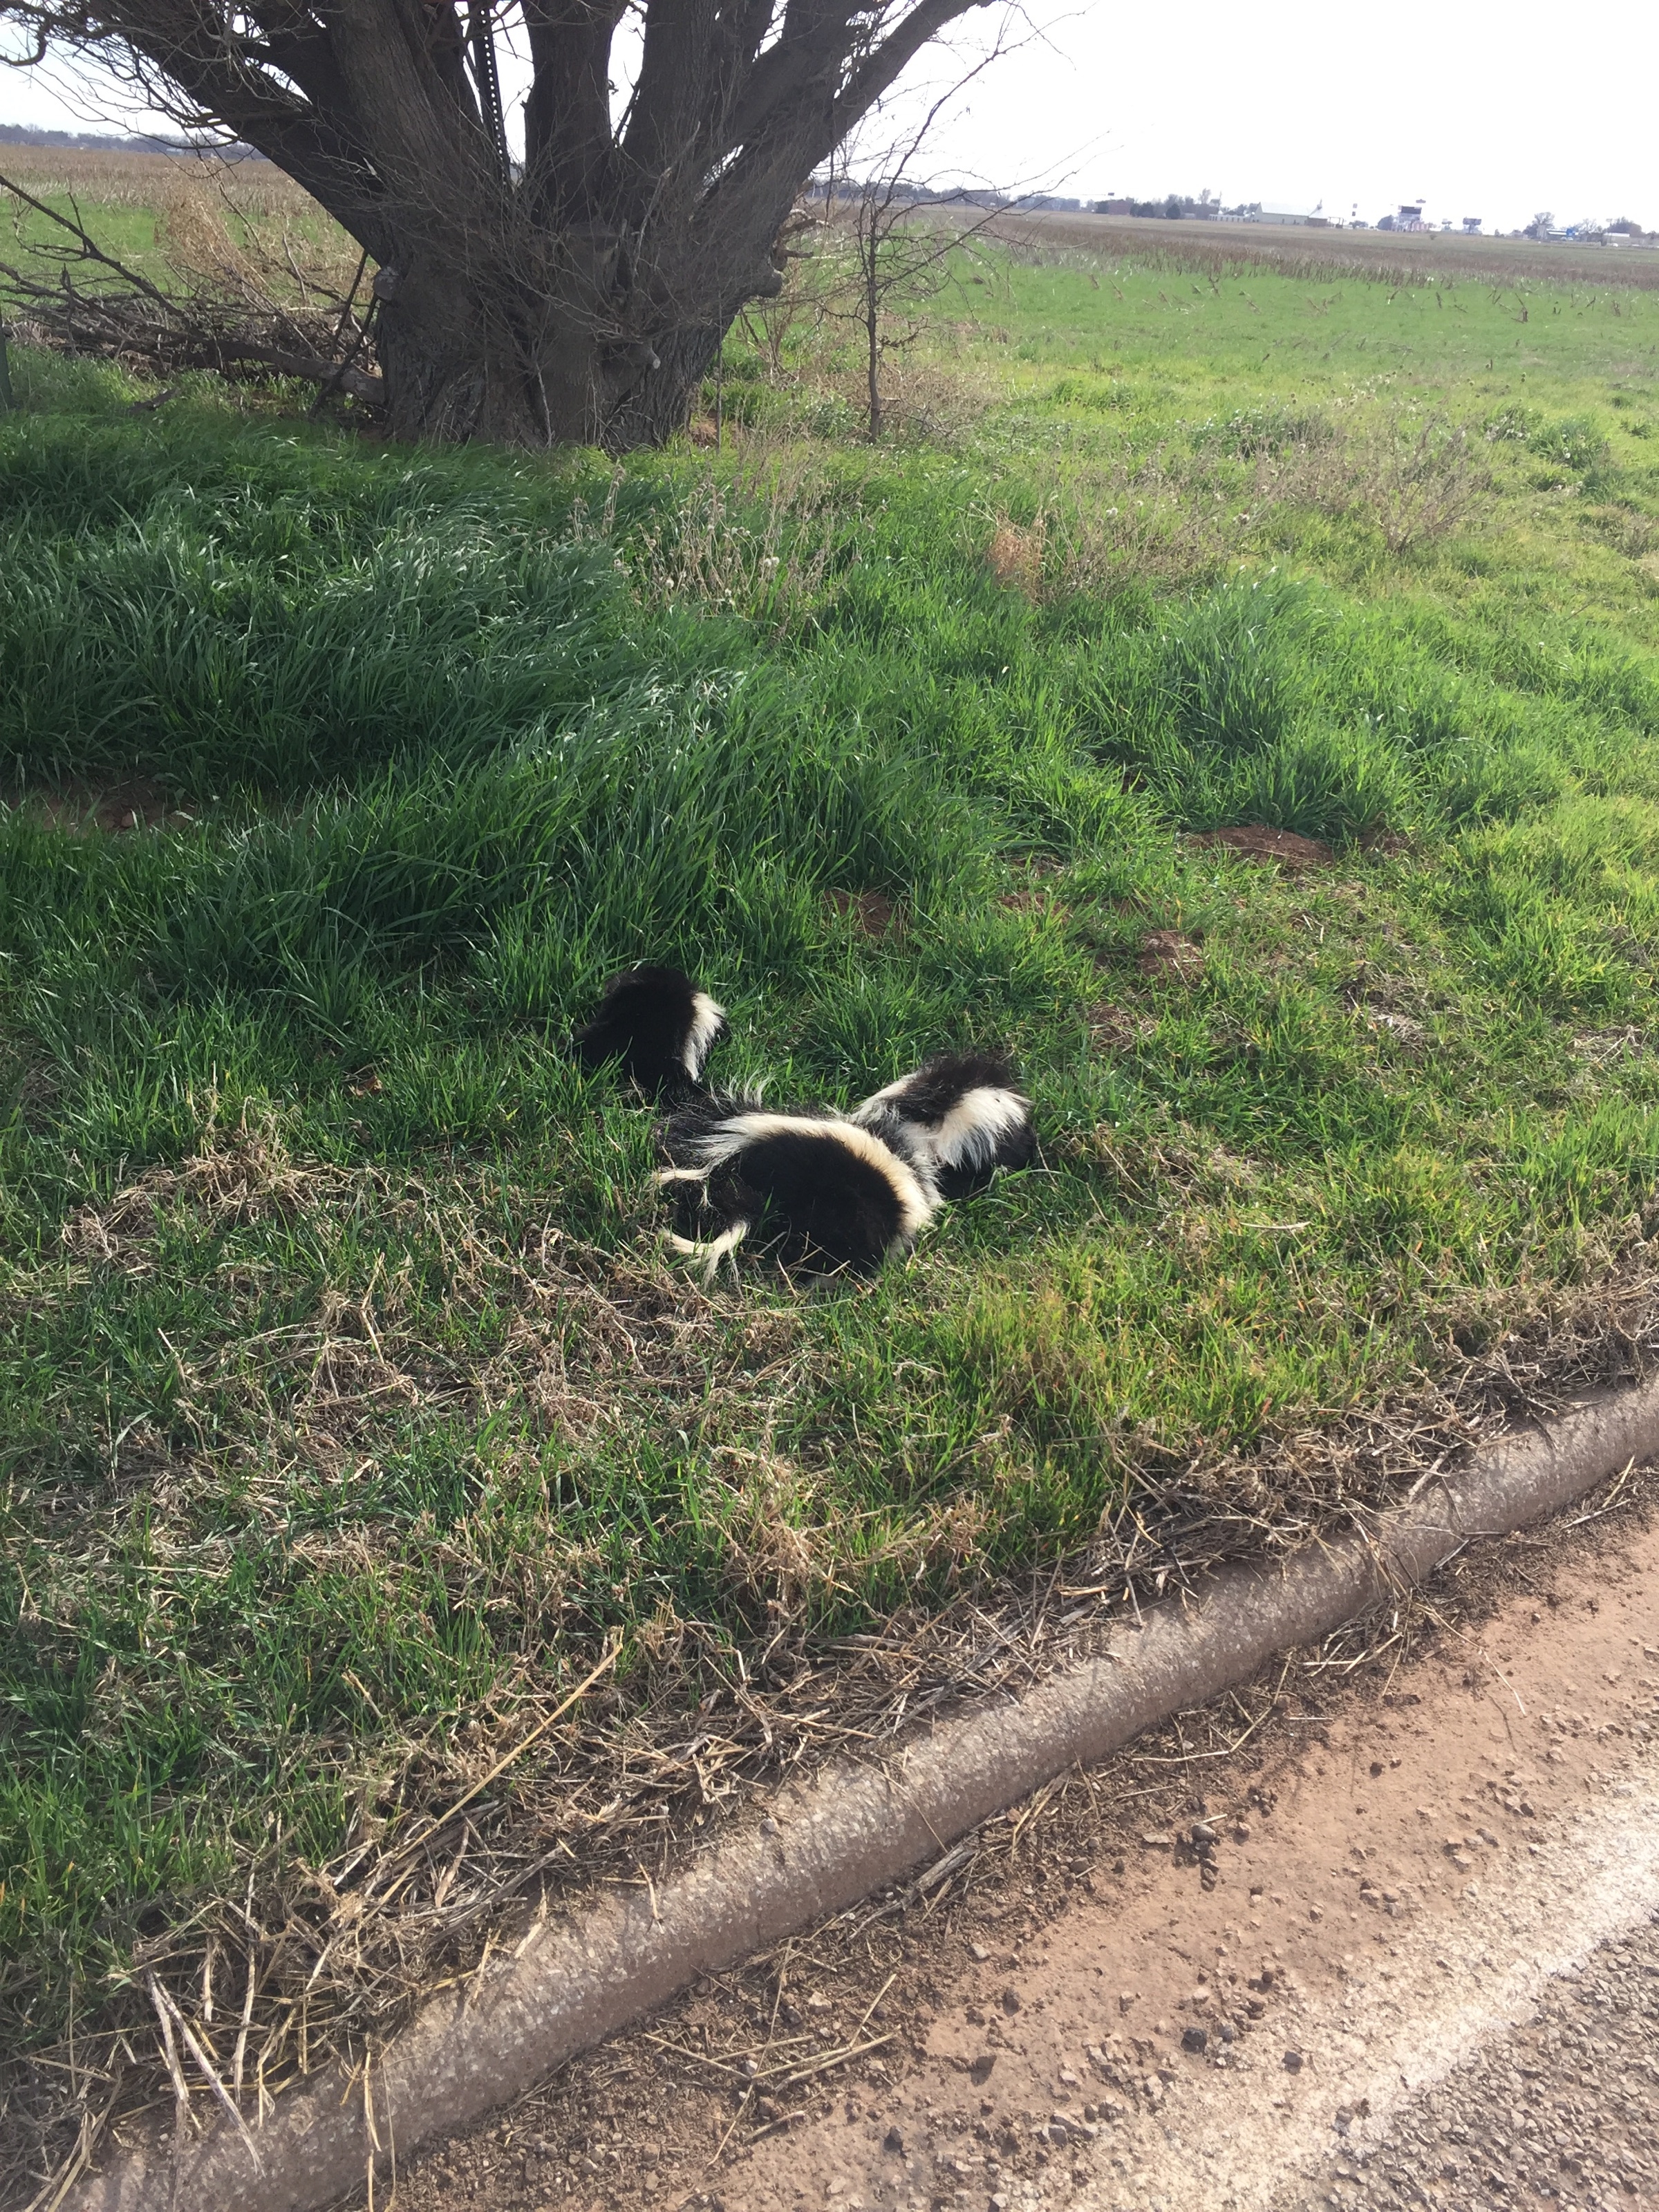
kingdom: Animalia
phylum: Chordata
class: Mammalia
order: Carnivora
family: Mephitidae
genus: Mephitis
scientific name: Mephitis mephitis
